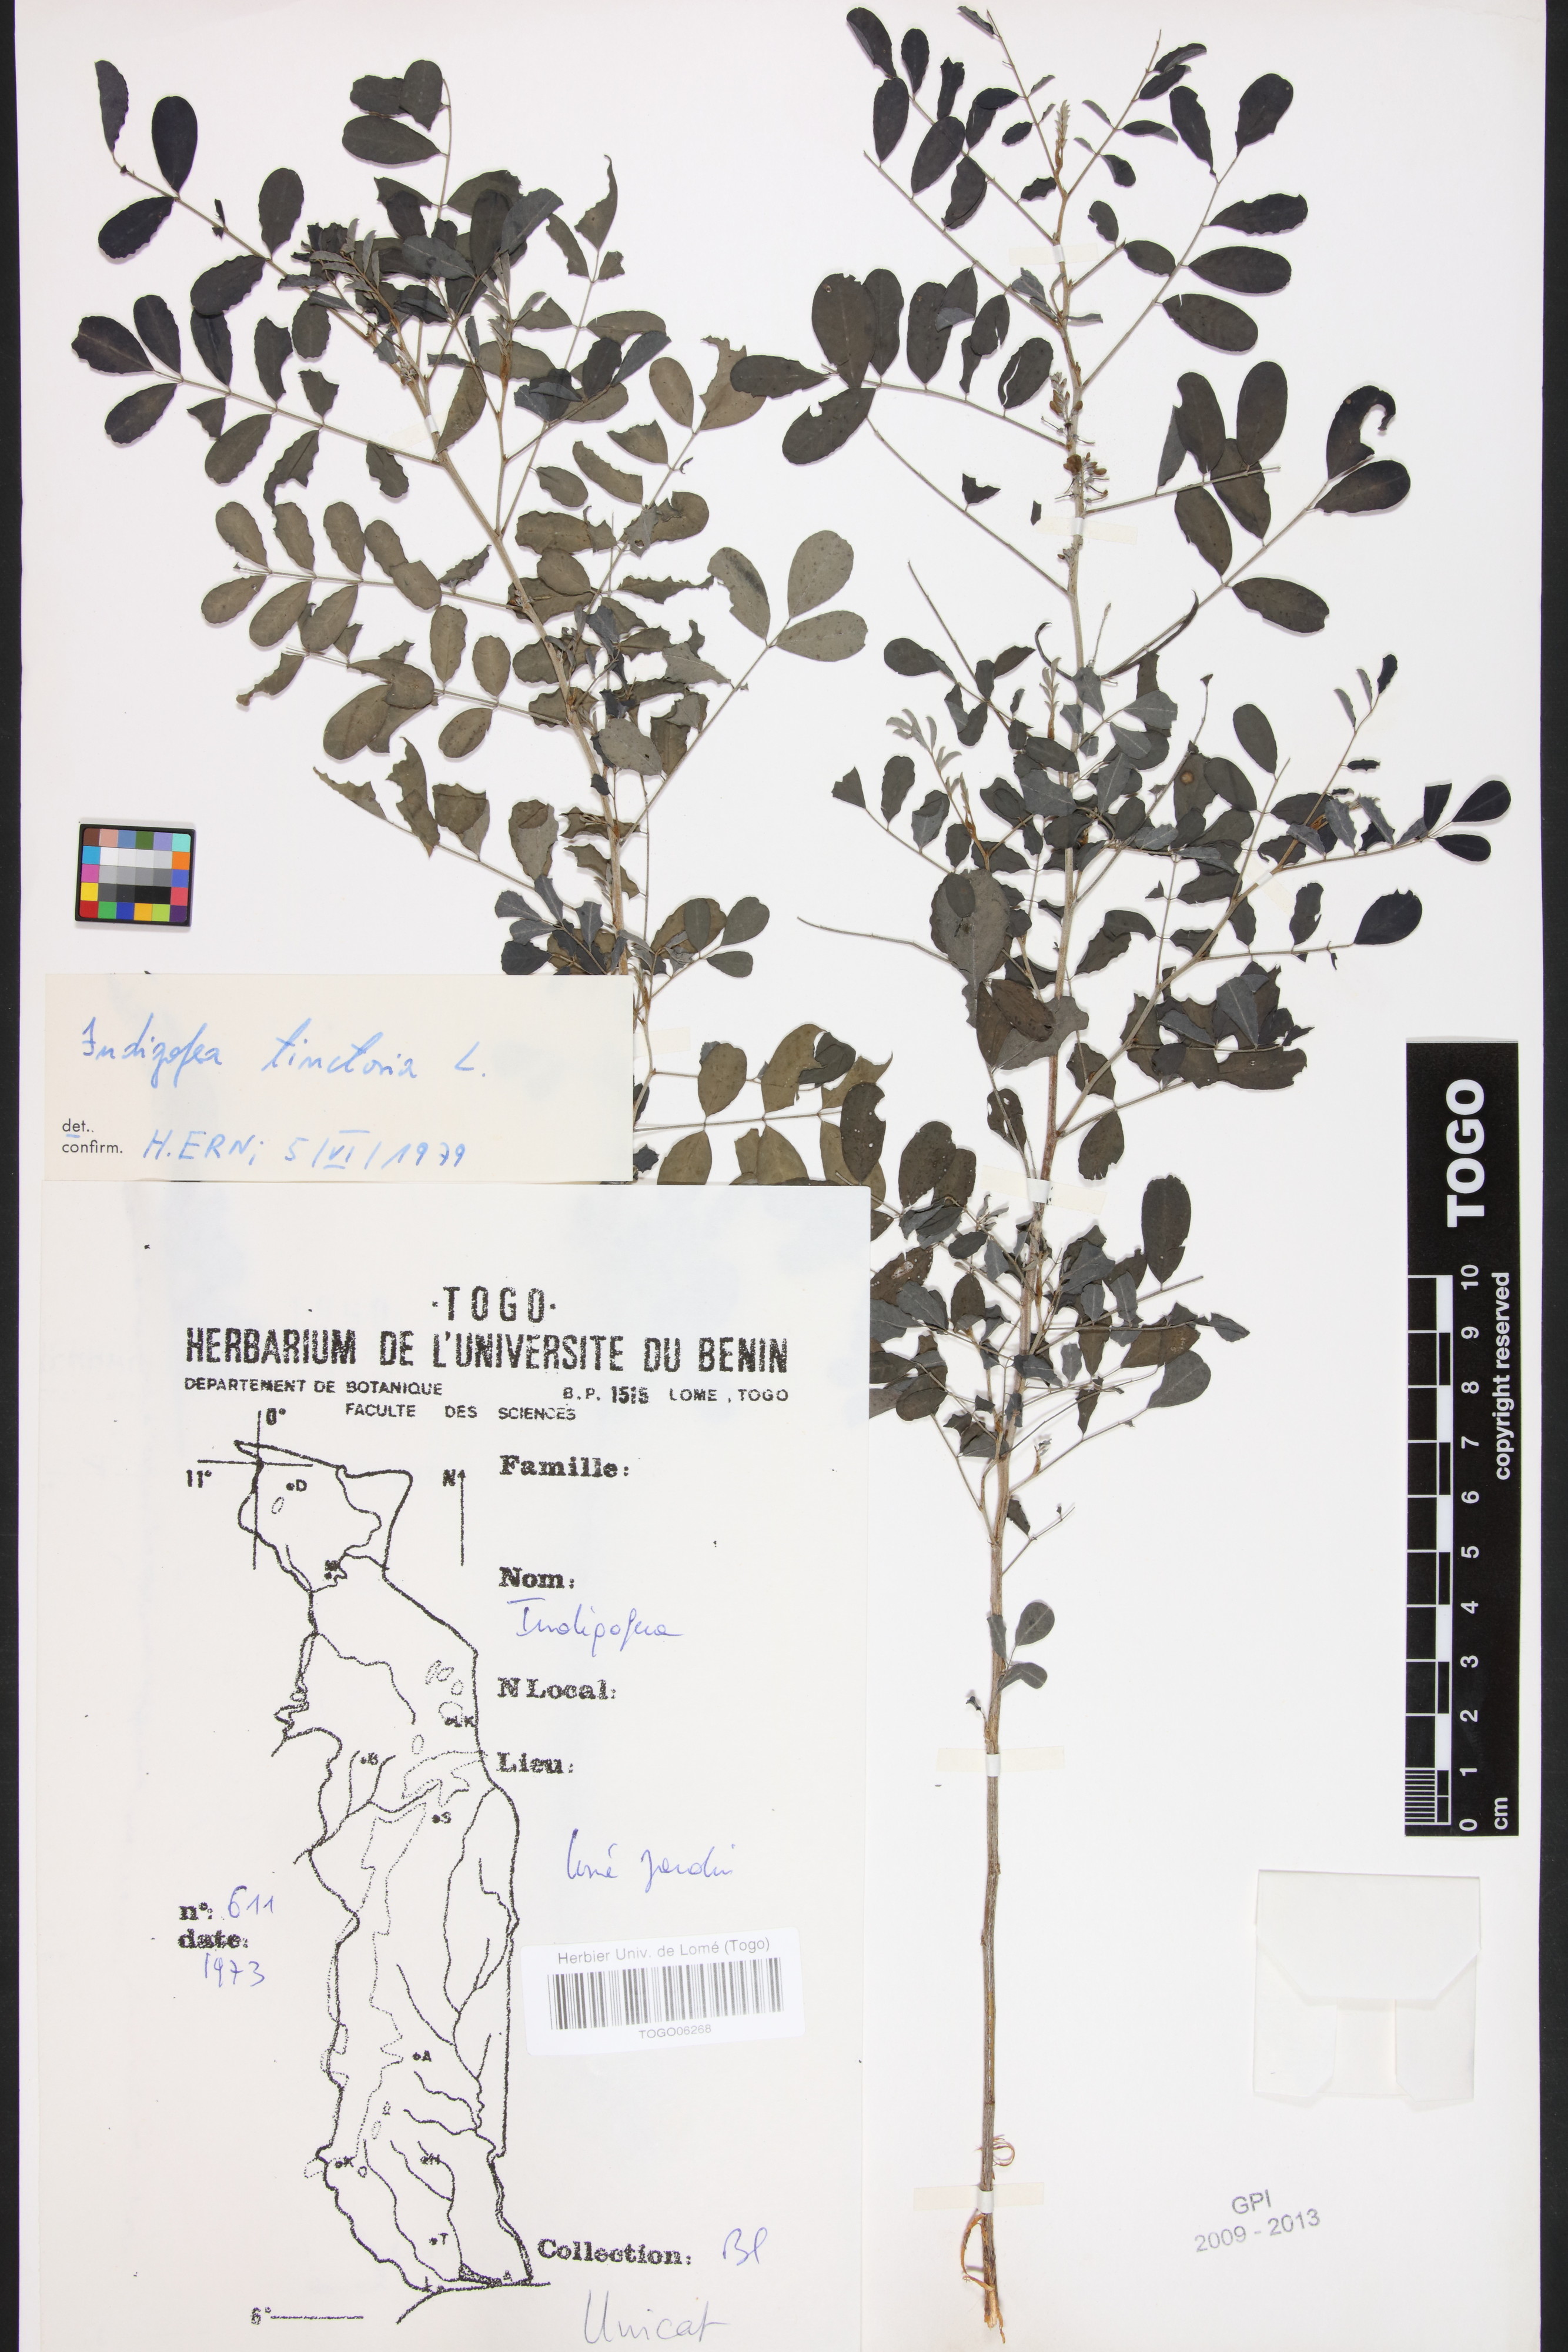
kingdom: Plantae
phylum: Tracheophyta
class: Magnoliopsida
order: Fabales
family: Fabaceae
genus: Indigofera
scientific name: Indigofera tinctoria
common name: True indigo
